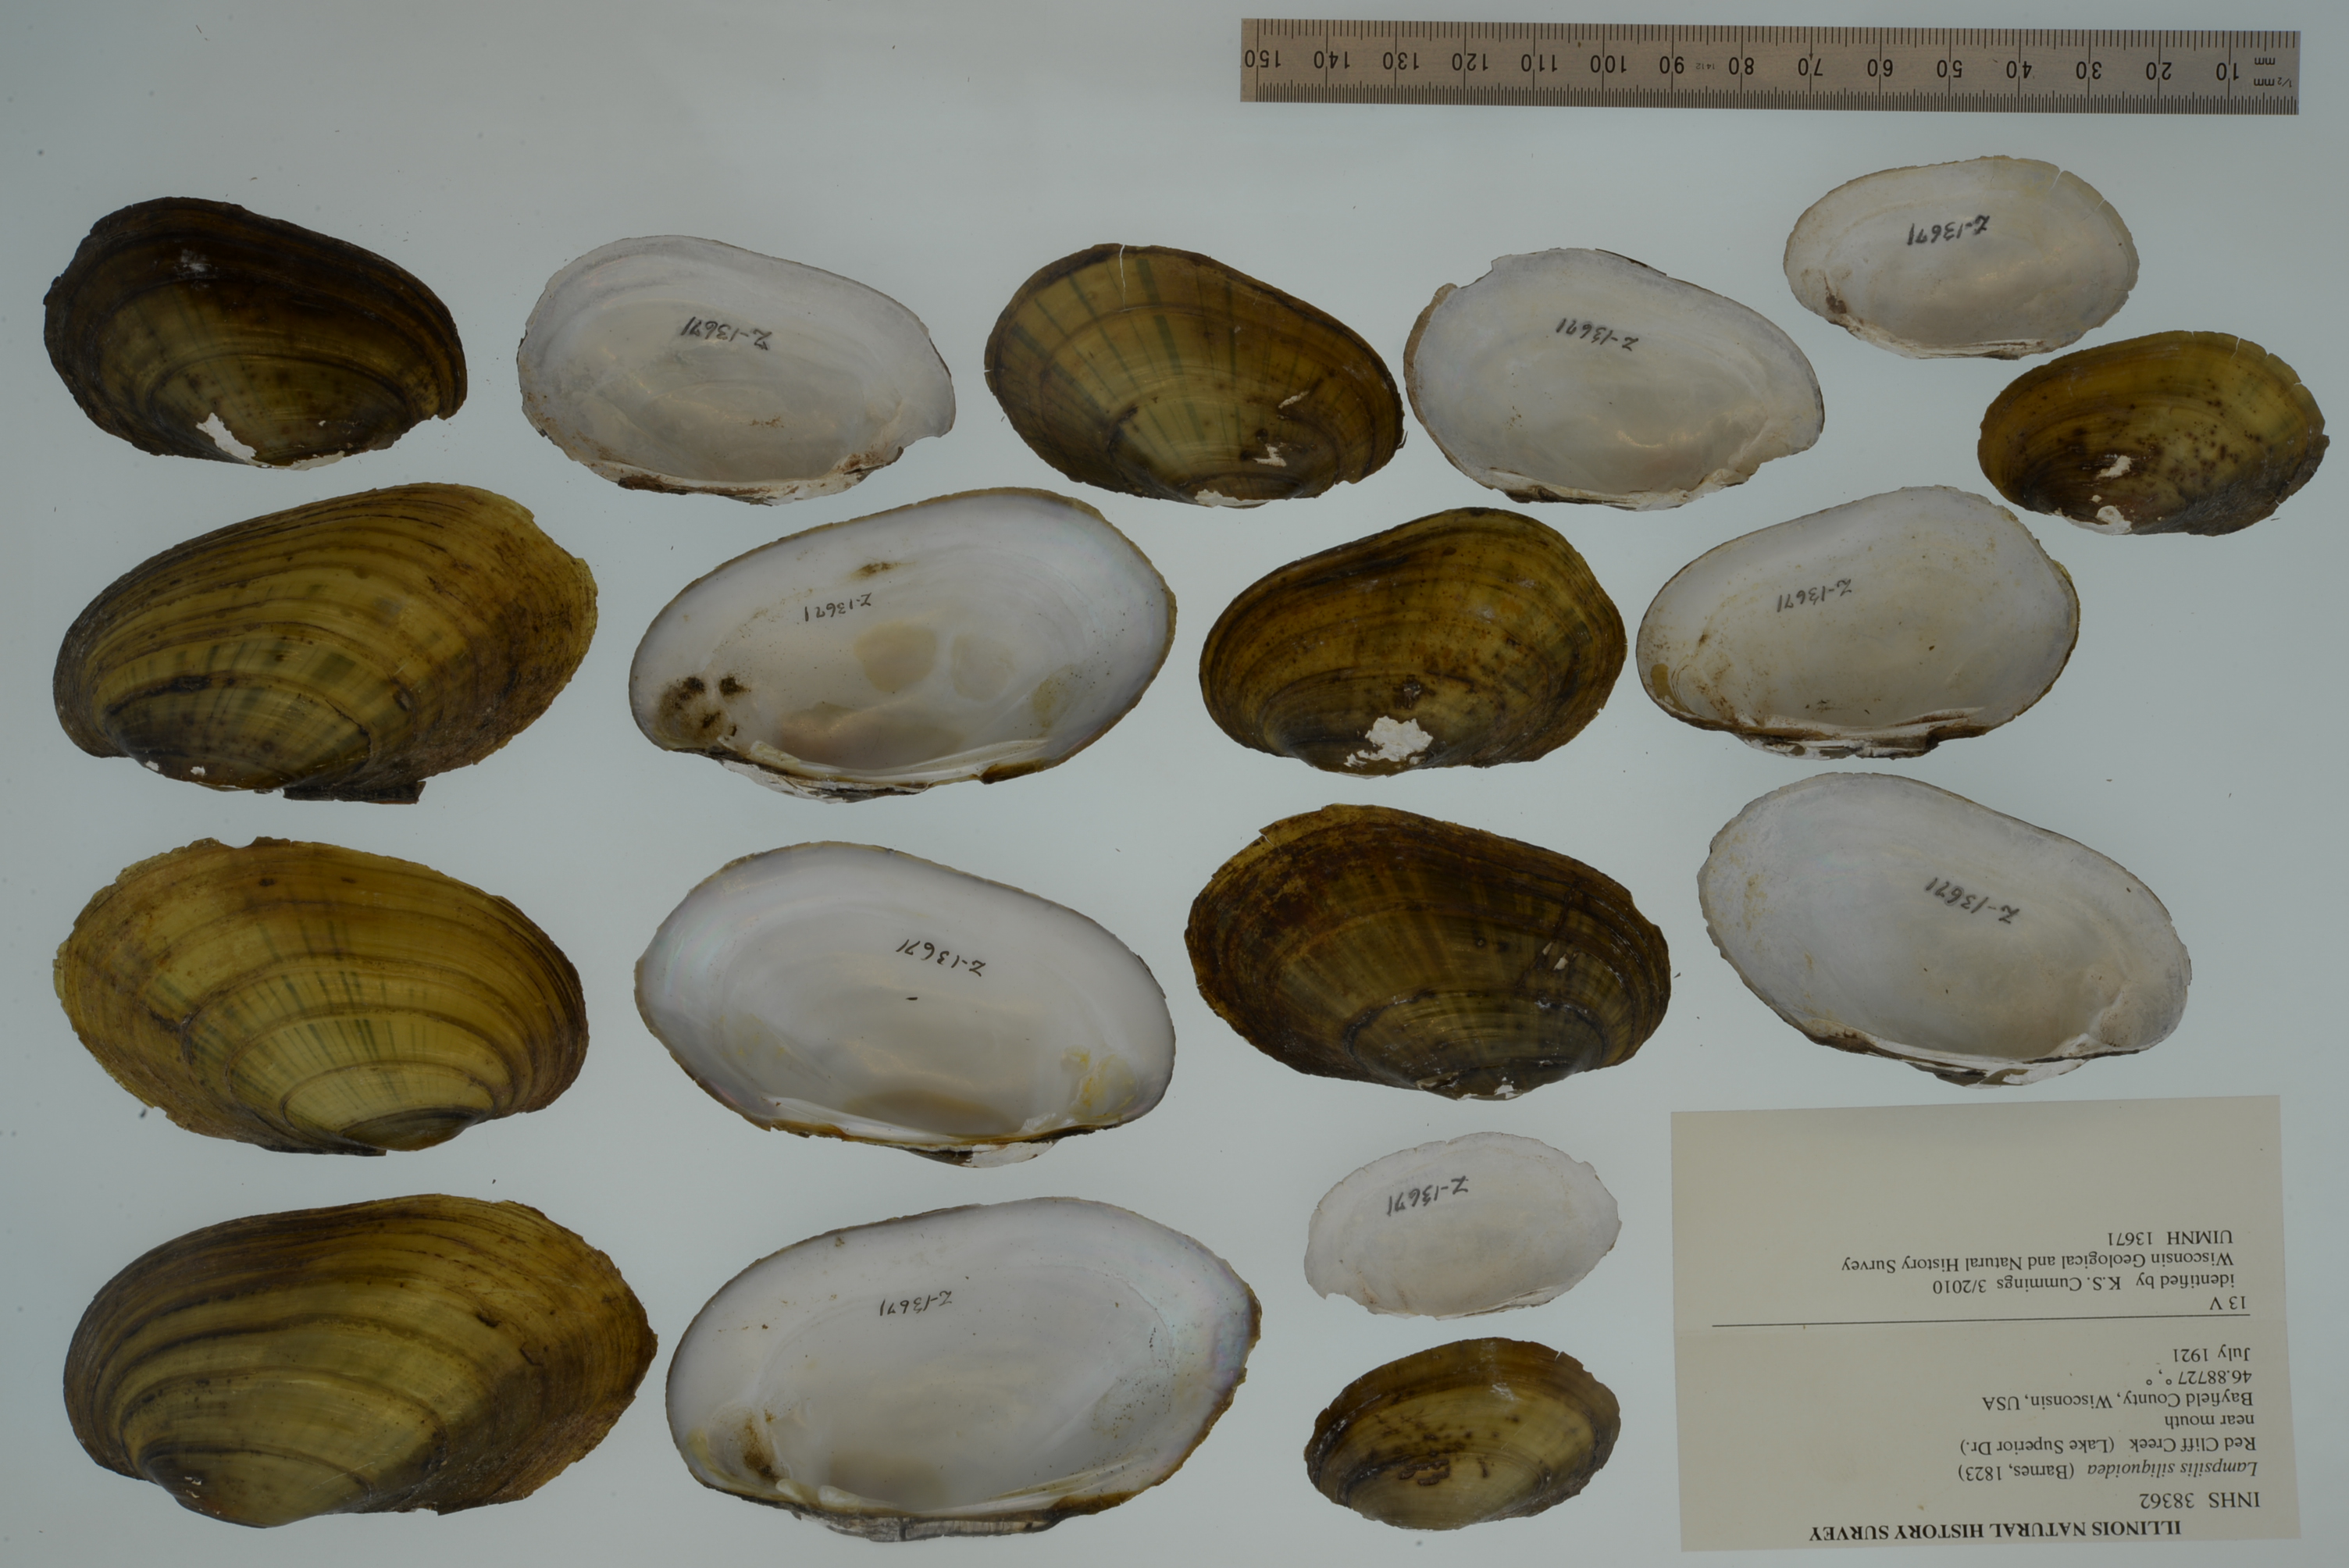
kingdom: Animalia
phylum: Mollusca
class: Bivalvia
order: Unionida
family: Unionidae
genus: Lampsilis
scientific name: Lampsilis siliquoidea
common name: Fatmucket
